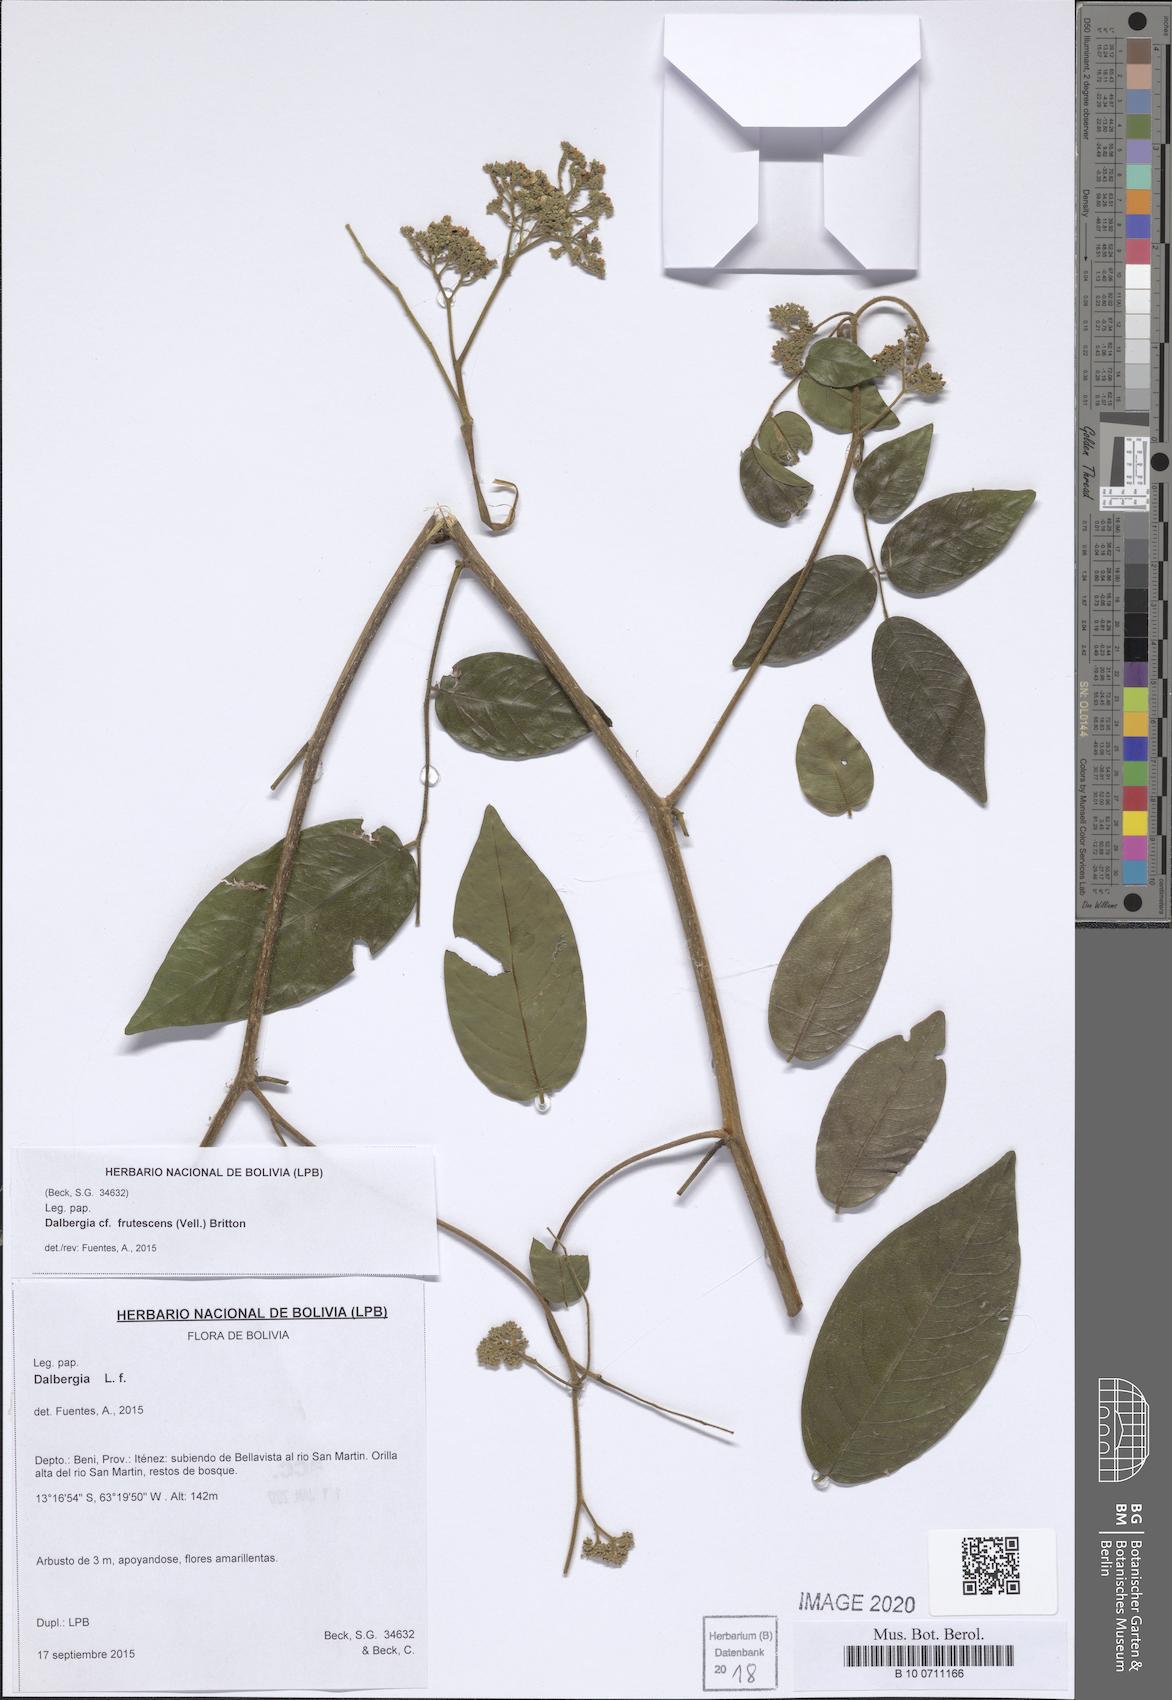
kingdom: Plantae
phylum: Tracheophyta
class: Magnoliopsida
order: Fabales
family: Fabaceae
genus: Dalbergia
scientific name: Dalbergia frutescens
